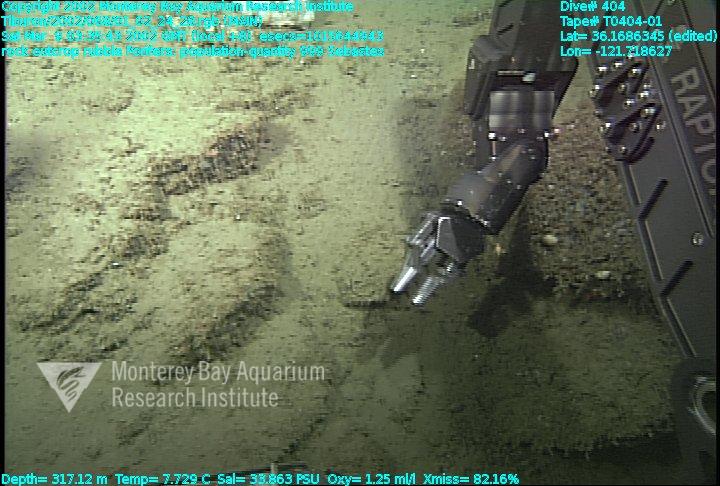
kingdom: Animalia
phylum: Porifera
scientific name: Porifera
